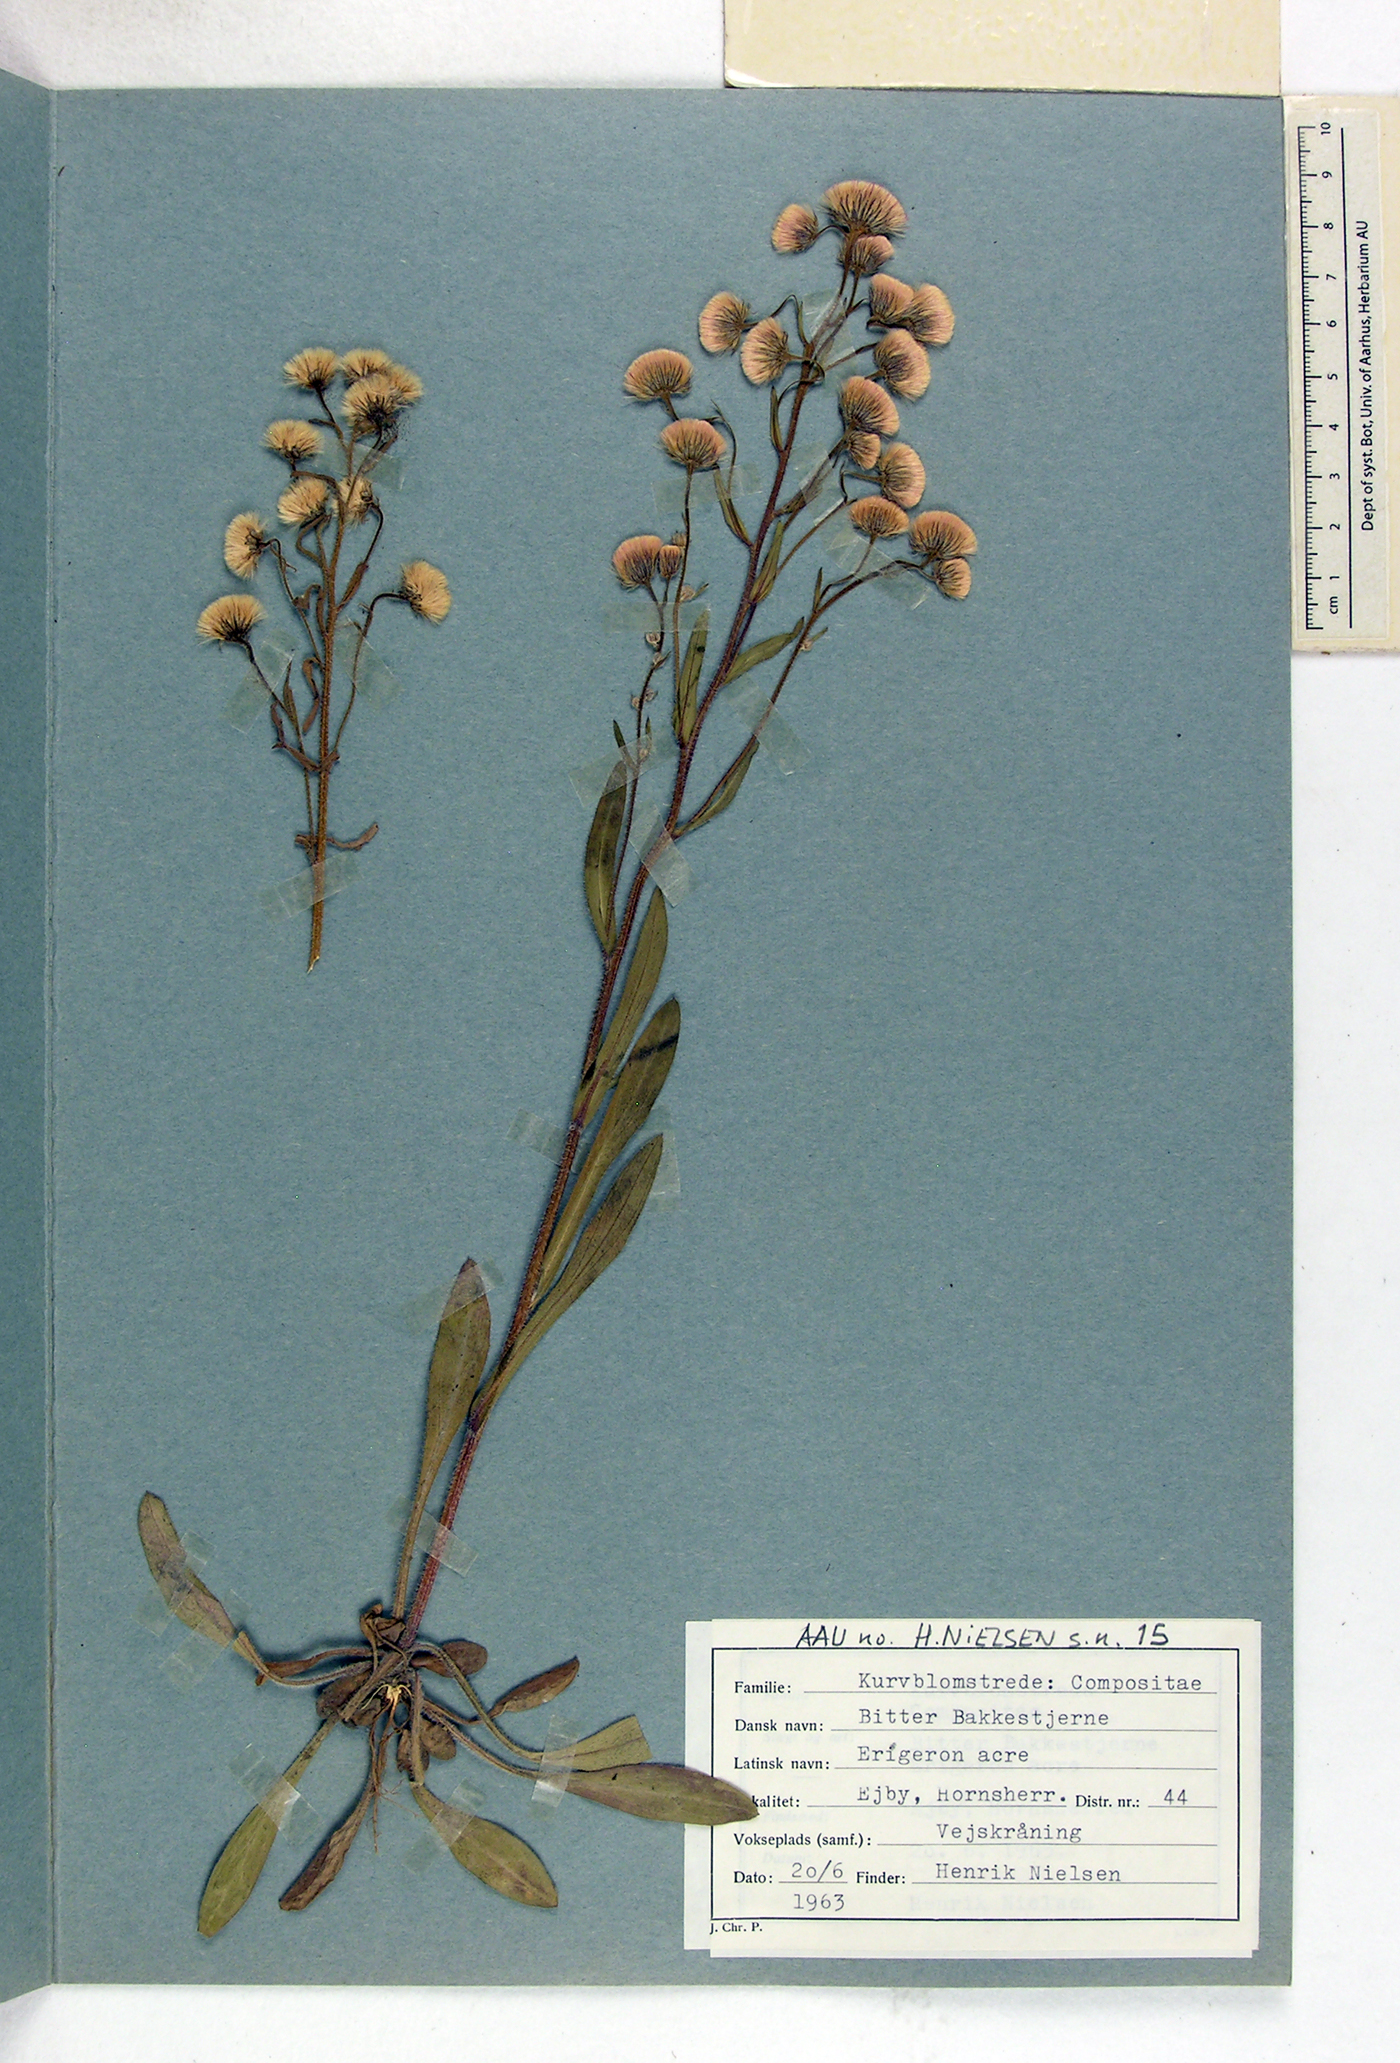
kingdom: Plantae
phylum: Tracheophyta
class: Magnoliopsida
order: Asterales
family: Asteraceae
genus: Erigeron
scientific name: Erigeron acris
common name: Blue fleabane
